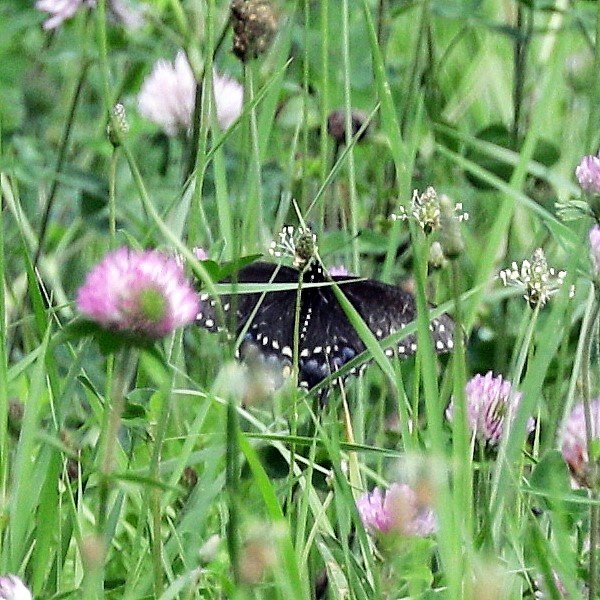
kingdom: Animalia
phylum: Arthropoda
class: Insecta
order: Lepidoptera
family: Papilionidae
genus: Papilio
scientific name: Papilio polyxenes
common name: Black Swallowtail
